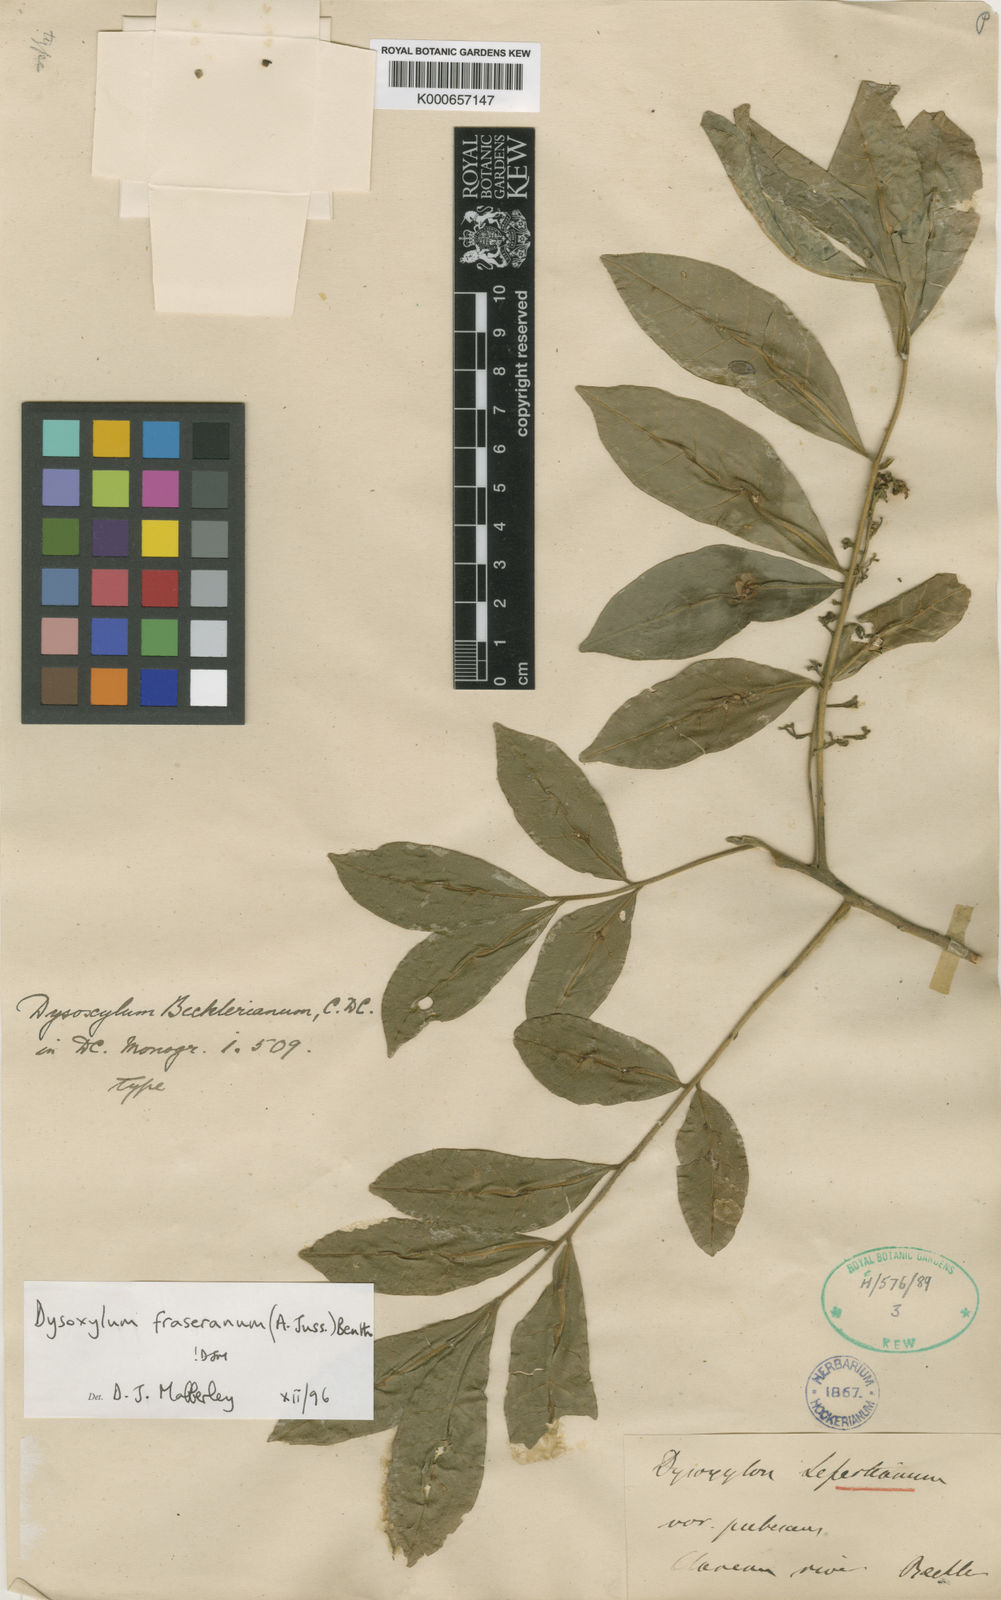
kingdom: Plantae
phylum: Tracheophyta
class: Magnoliopsida
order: Sapindales
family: Meliaceae
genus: Dysoxylum
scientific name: Dysoxylum
